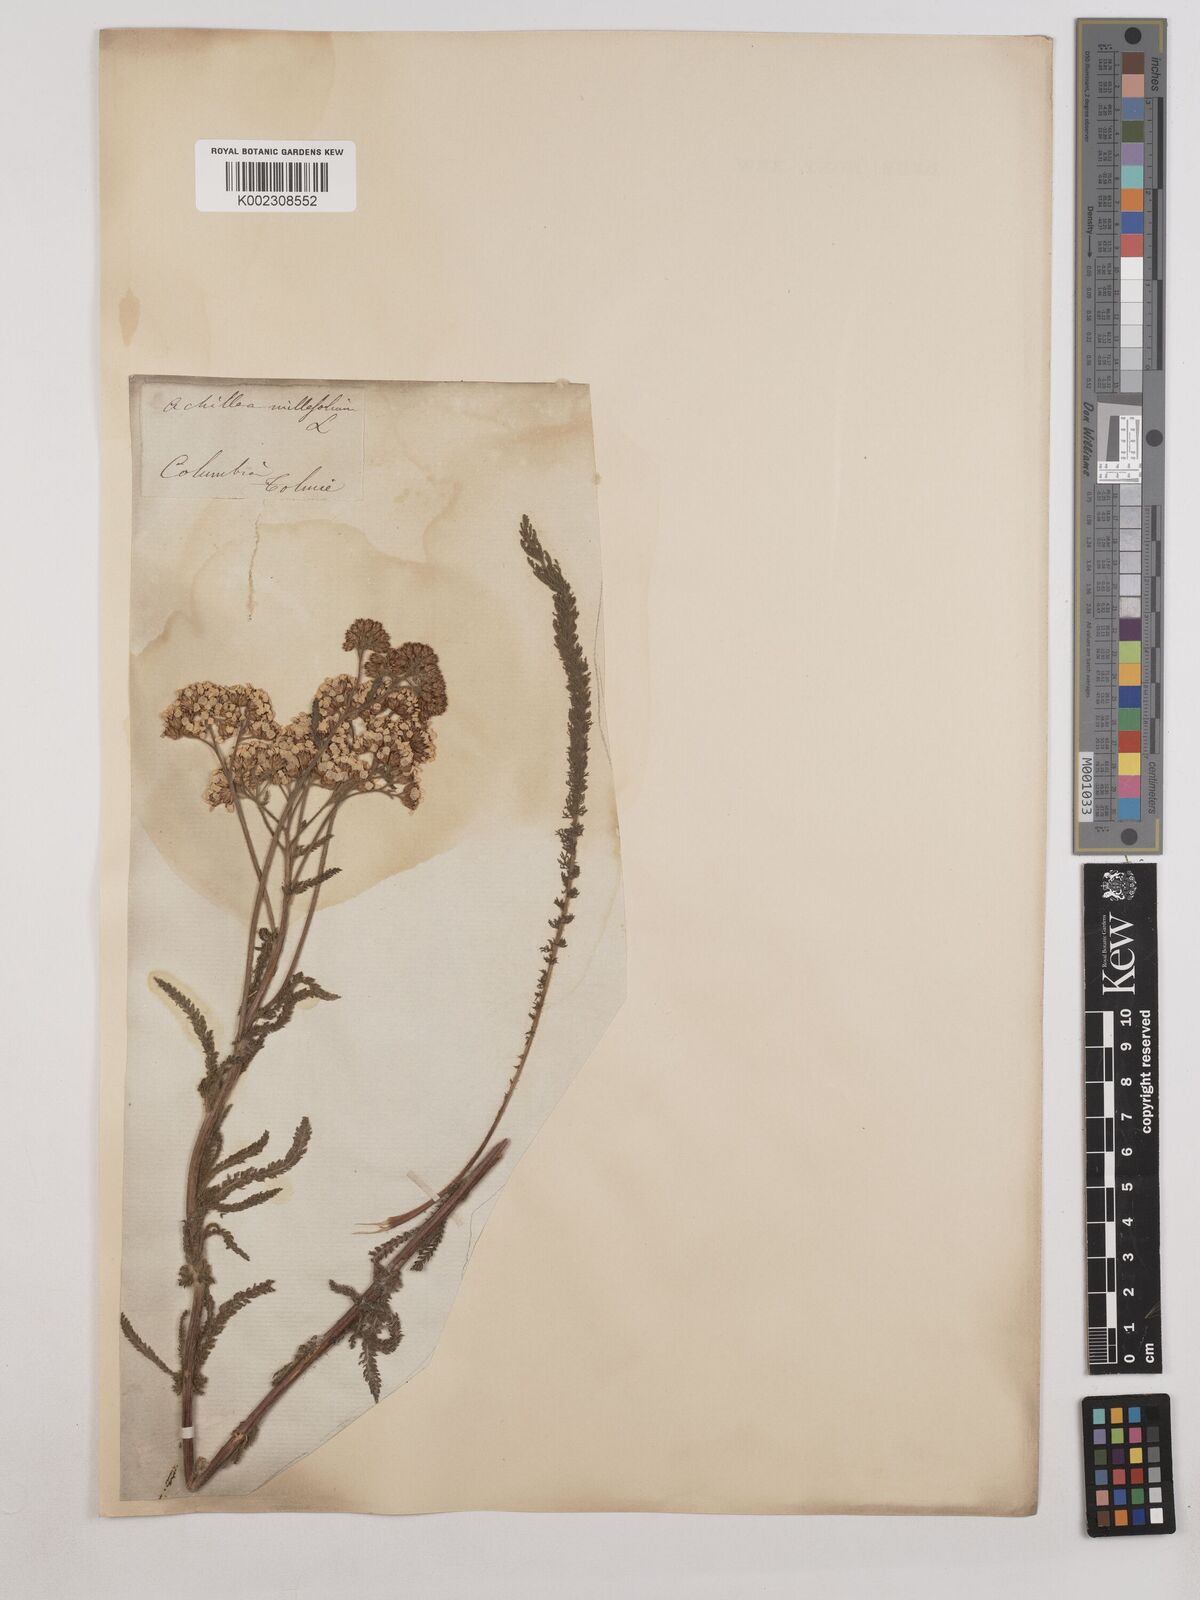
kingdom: Plantae
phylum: Tracheophyta
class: Magnoliopsida
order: Asterales
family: Asteraceae
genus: Achillea
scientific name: Achillea millefolium
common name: Yarrow
